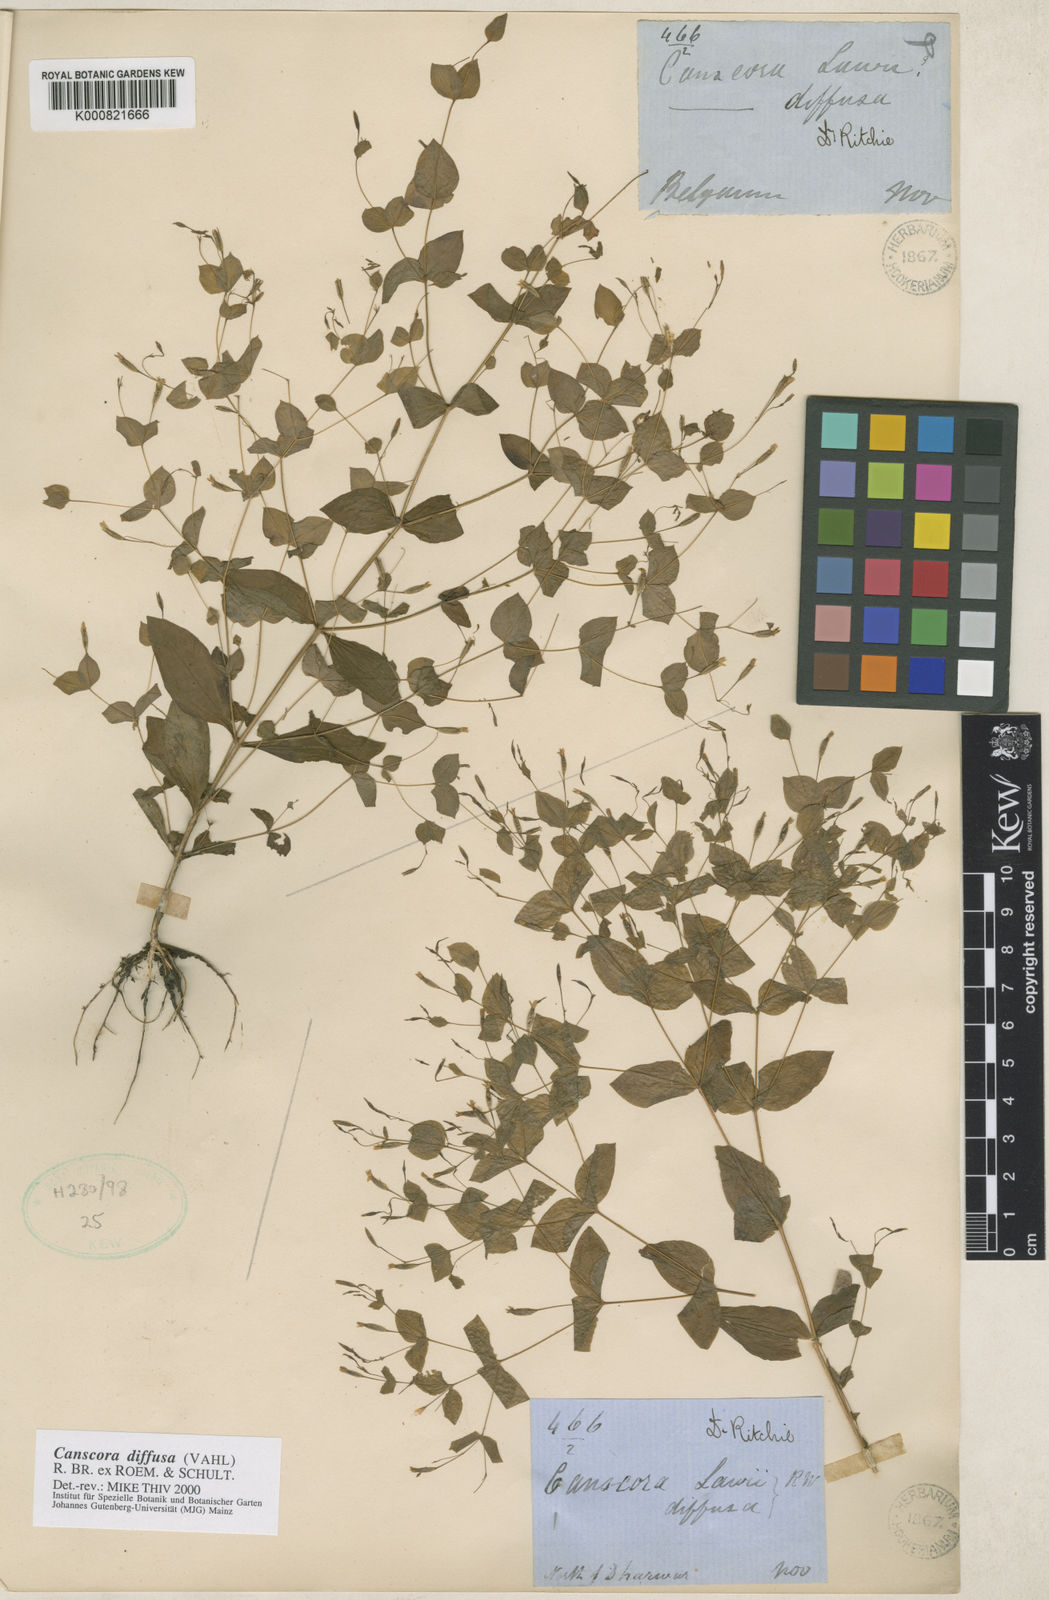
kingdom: Plantae
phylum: Tracheophyta
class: Magnoliopsida
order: Gentianales
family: Gentianaceae
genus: Canscora
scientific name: Canscora diffusa
